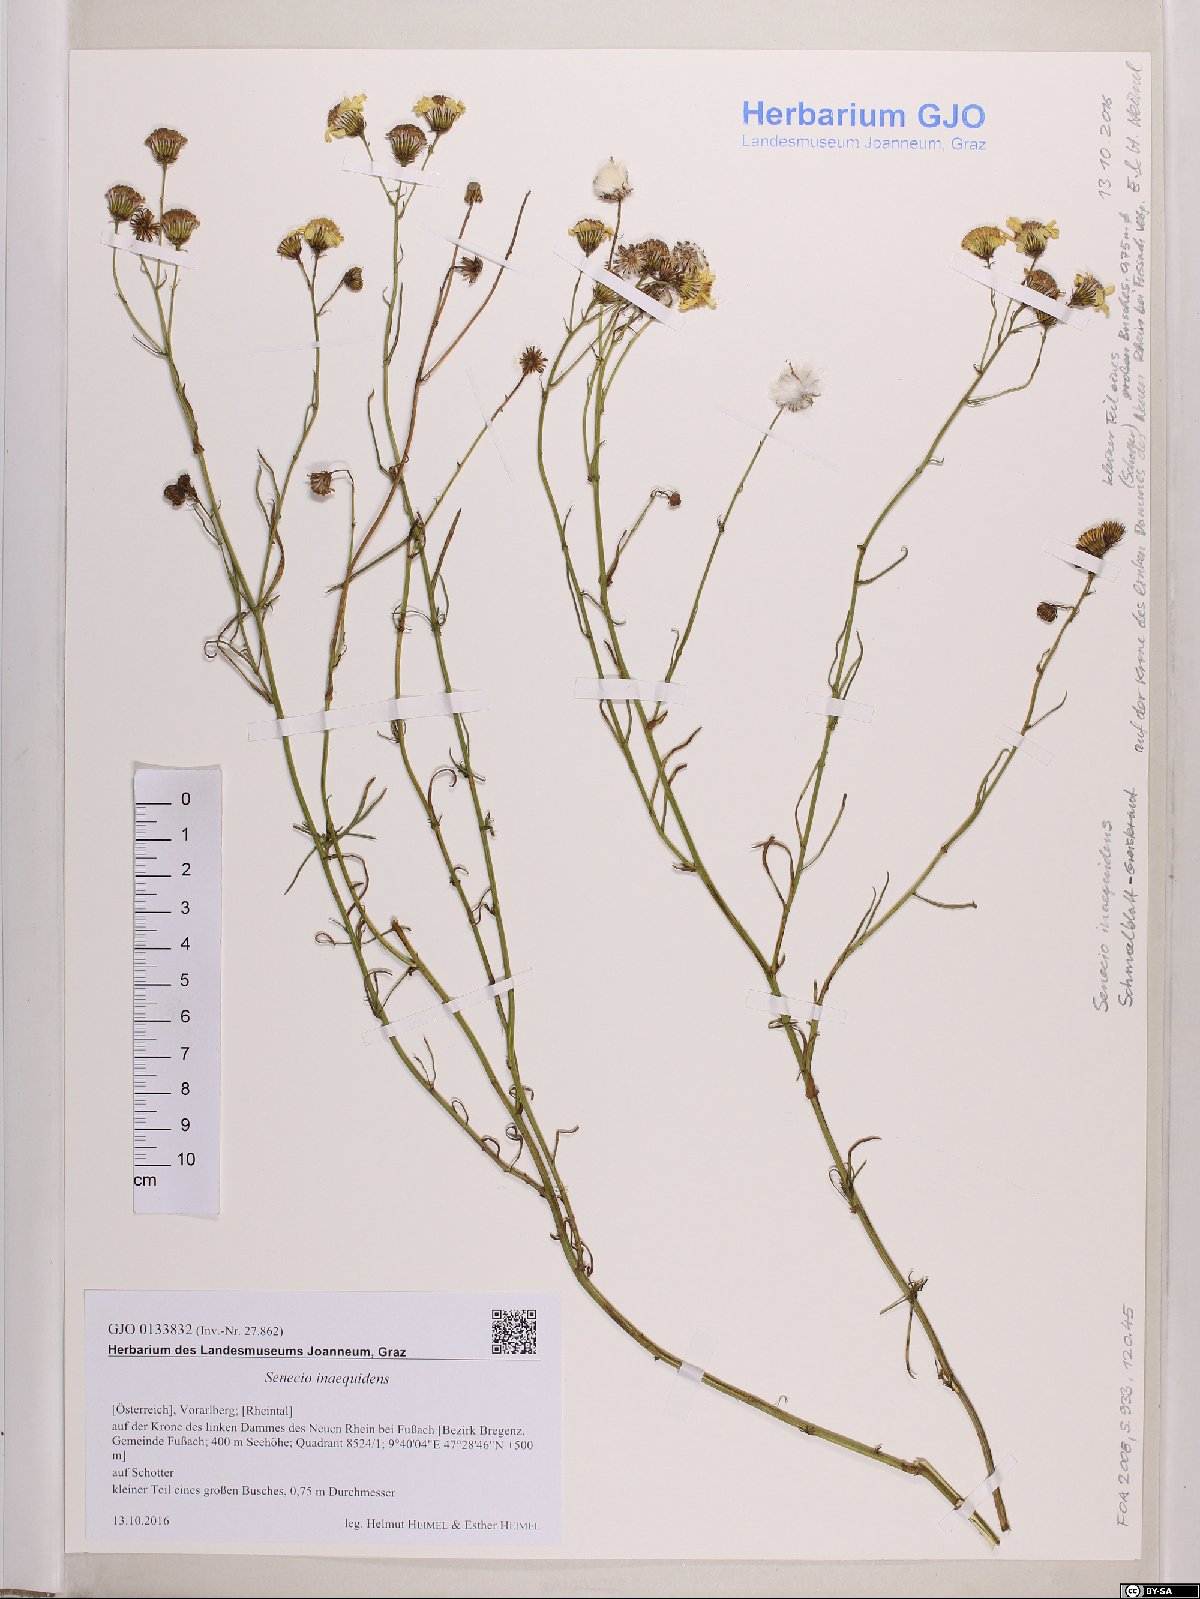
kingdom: Plantae
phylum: Tracheophyta
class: Magnoliopsida
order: Asterales
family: Asteraceae
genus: Senecio
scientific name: Senecio inaequidens
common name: Narrow-leaved ragwort
